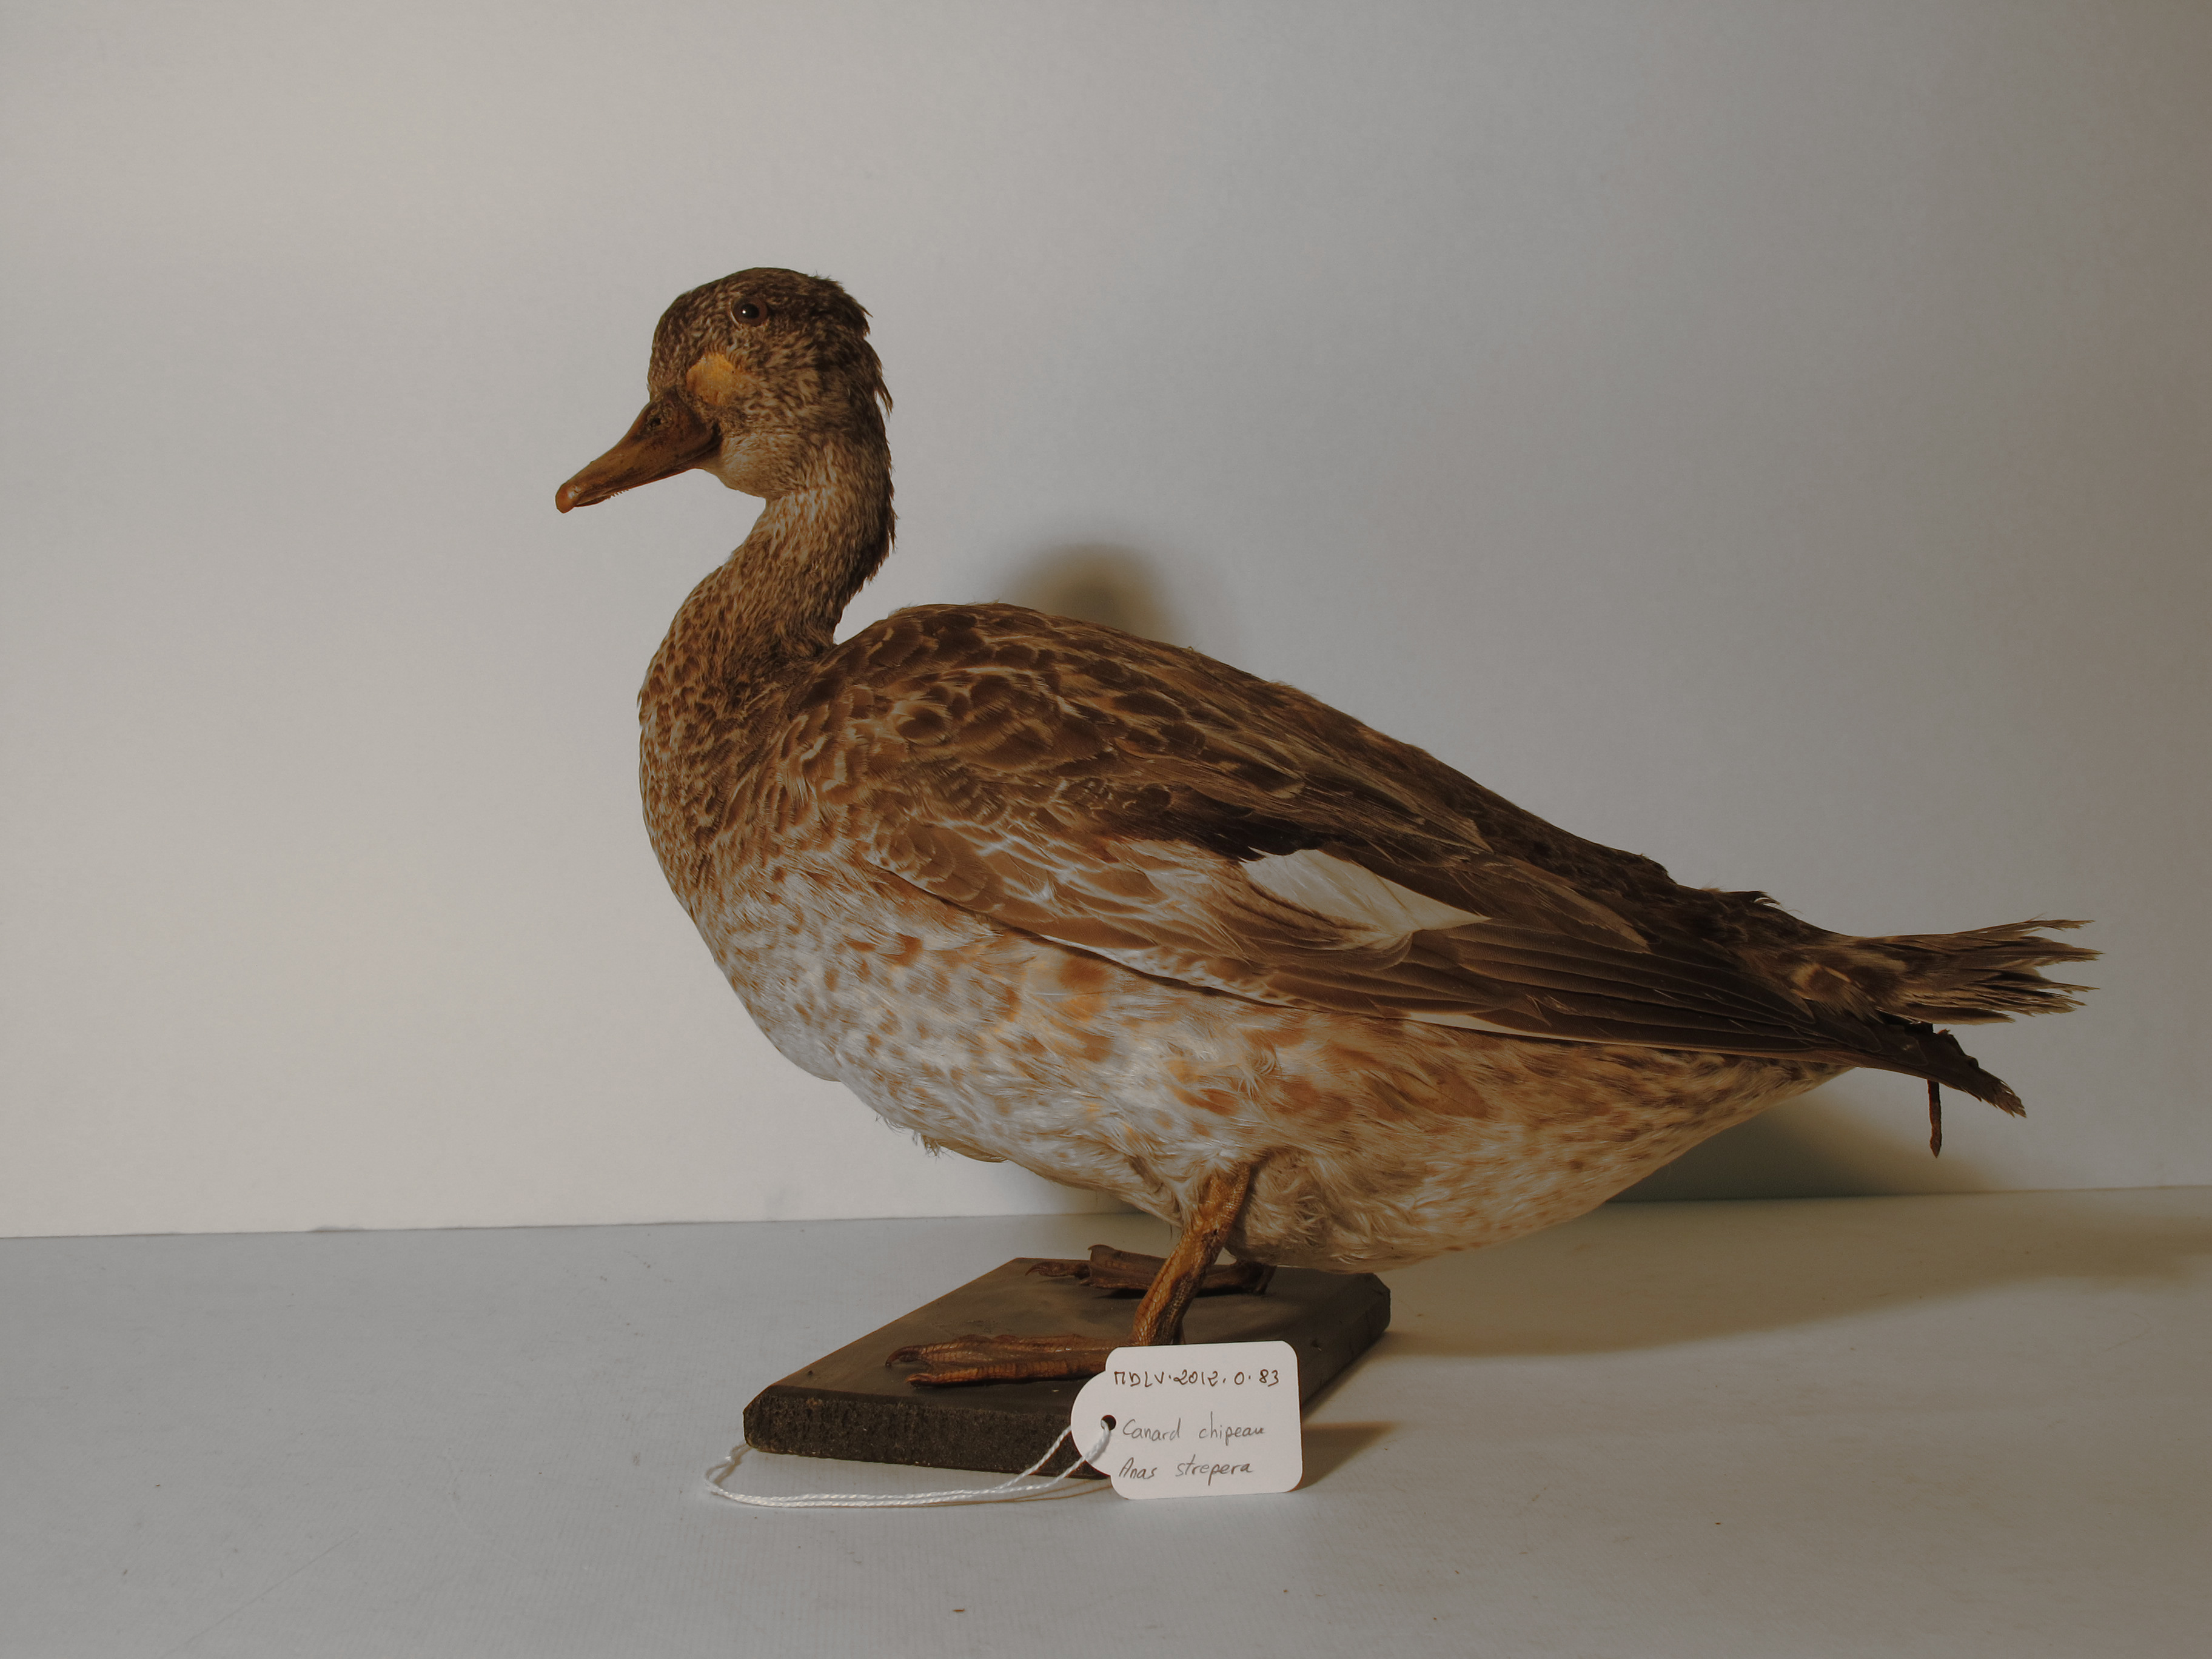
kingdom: Animalia
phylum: Chordata
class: Aves
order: Anseriformes
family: Anatidae
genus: Mareca
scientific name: Mareca strepera
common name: Gadwall
